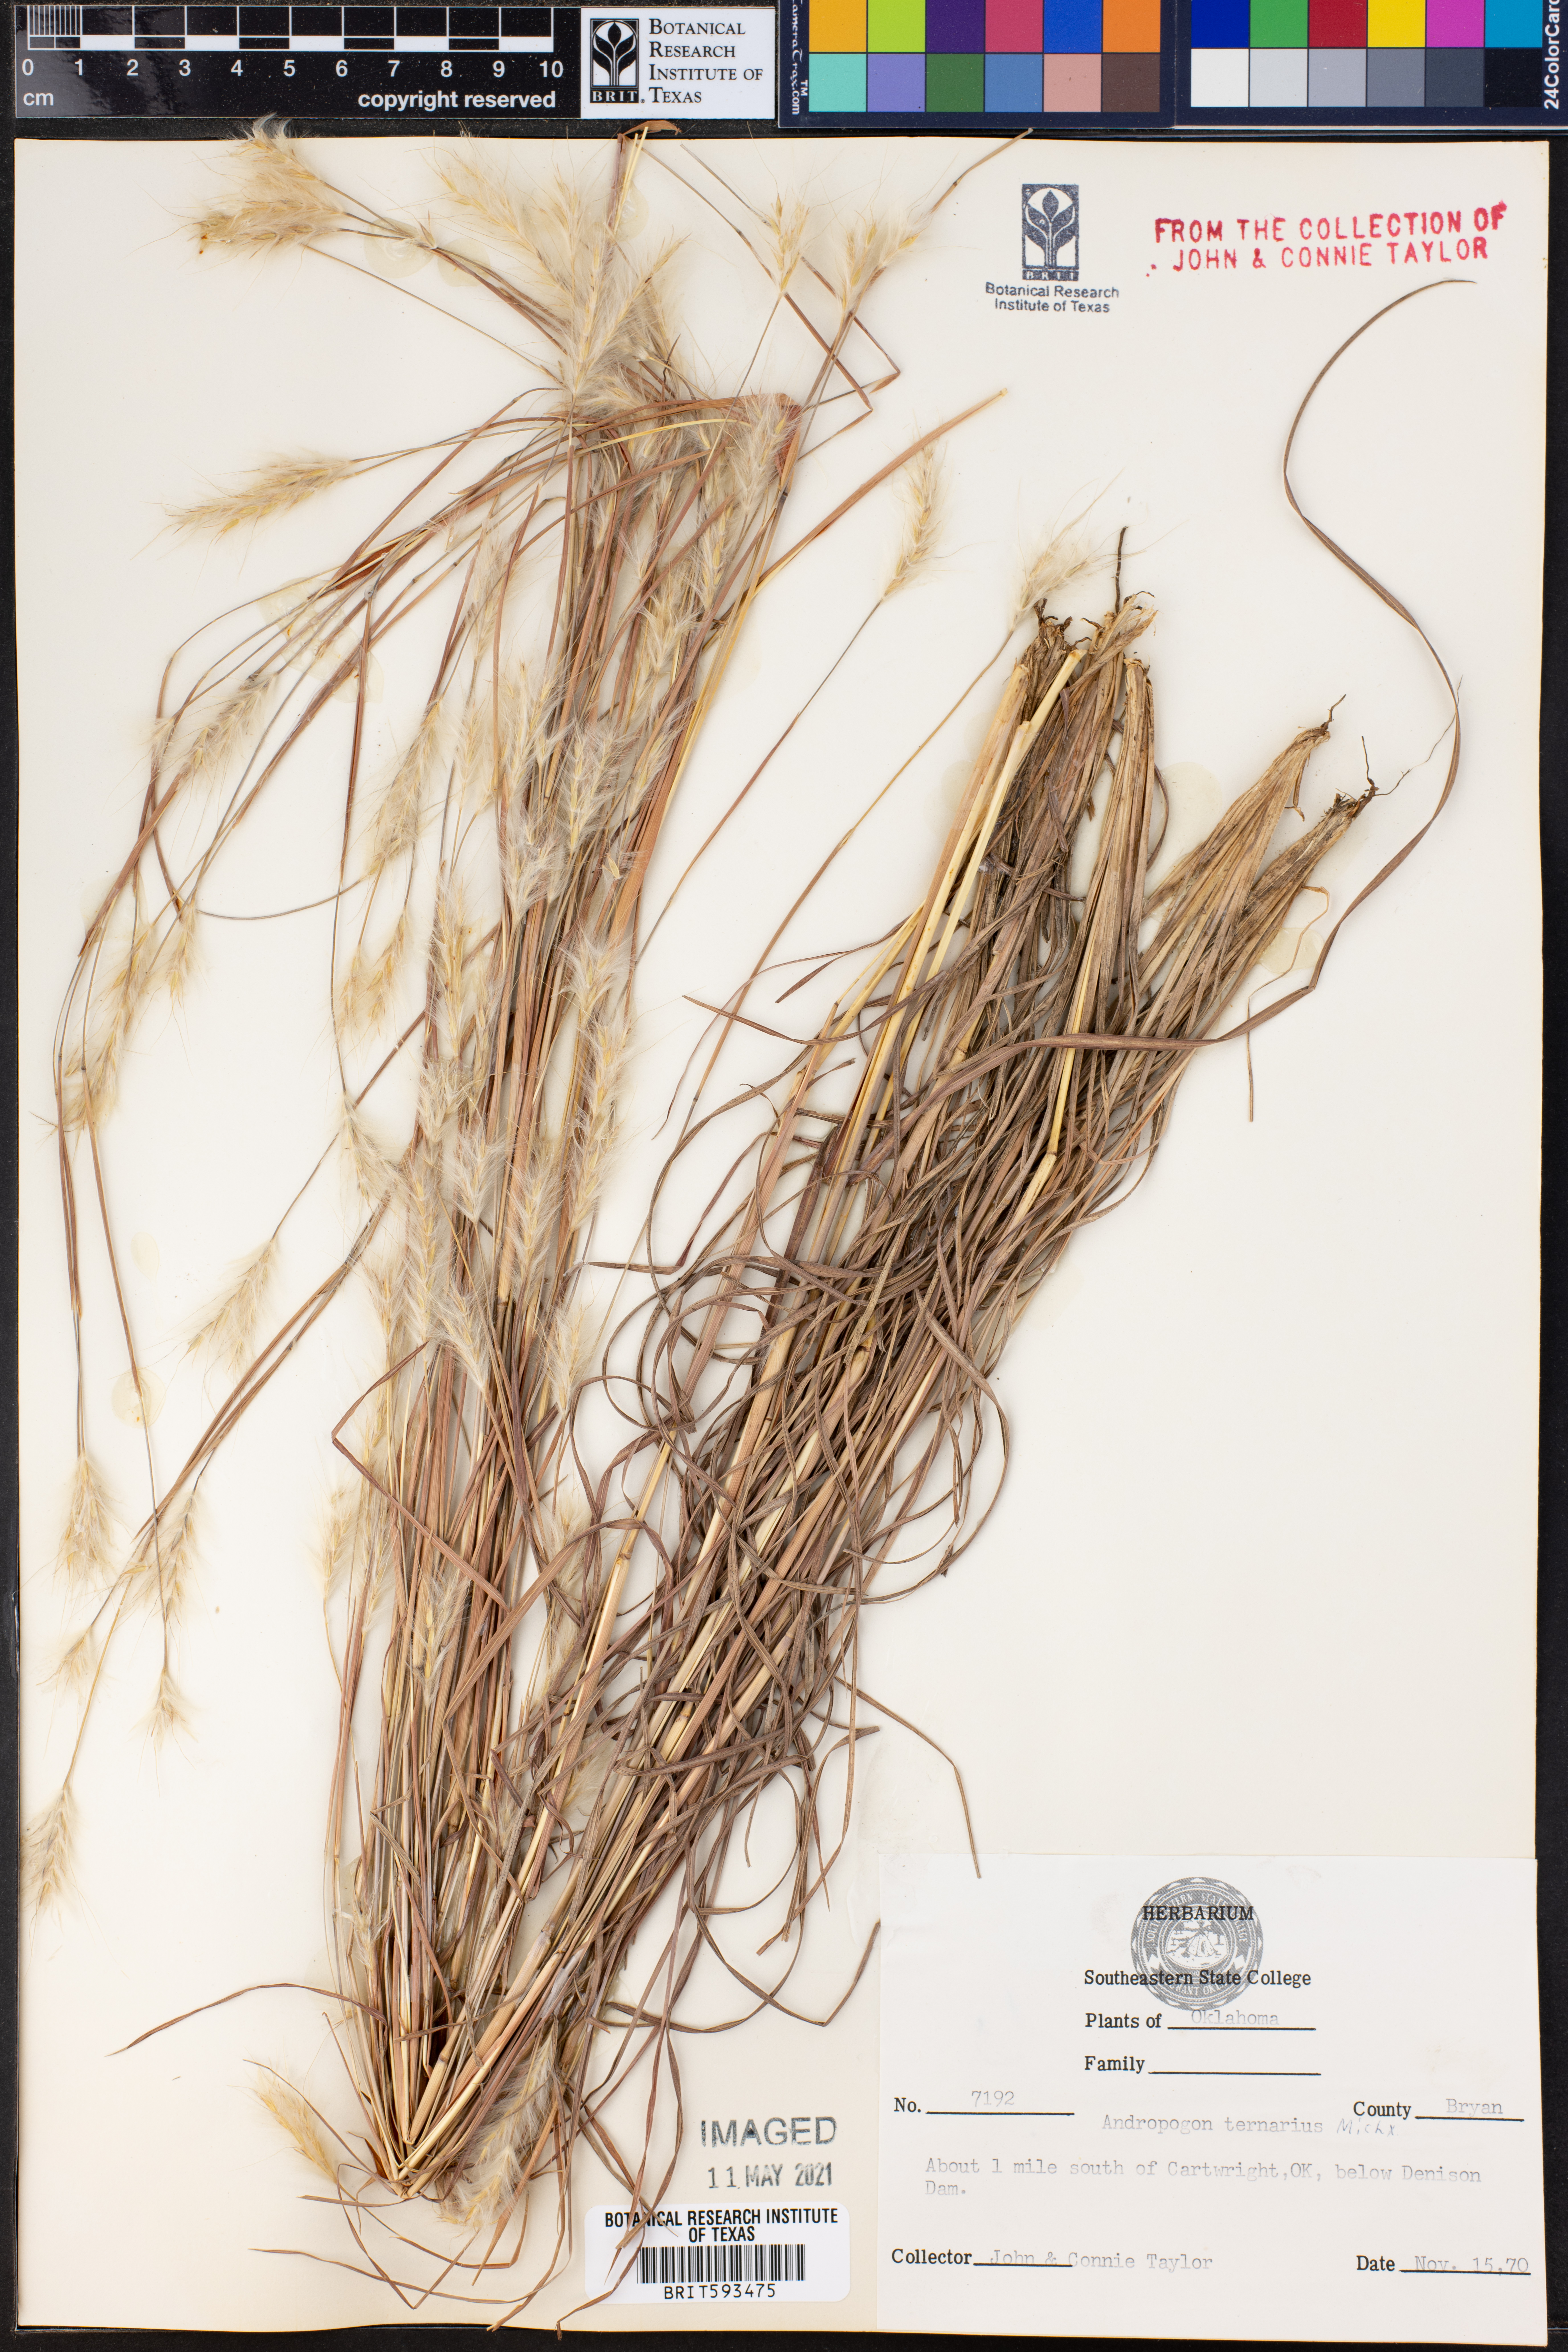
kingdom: Plantae
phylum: Tracheophyta
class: Liliopsida
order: Poales
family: Poaceae
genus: Andropogon
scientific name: Andropogon ternarius
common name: Split bluestem
